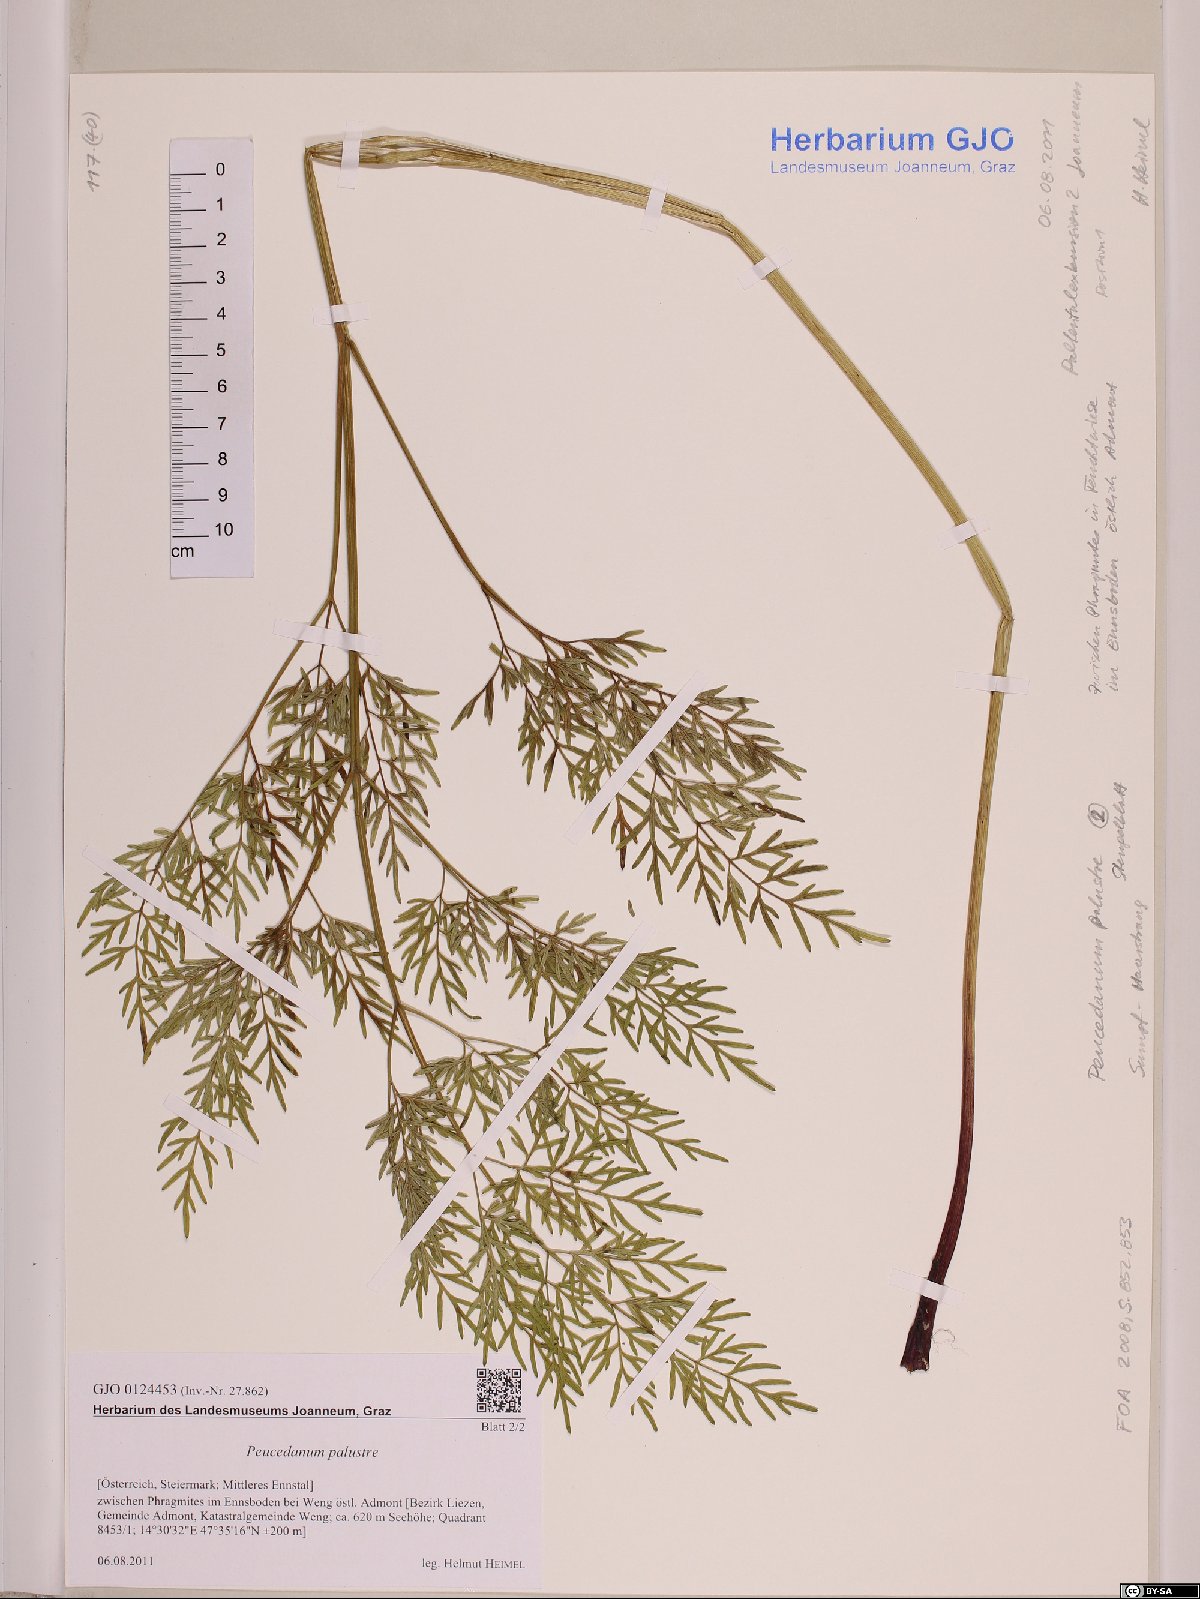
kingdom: Plantae
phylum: Tracheophyta
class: Magnoliopsida
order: Apiales
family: Apiaceae
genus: Thysselinum
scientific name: Thysselinum palustre
